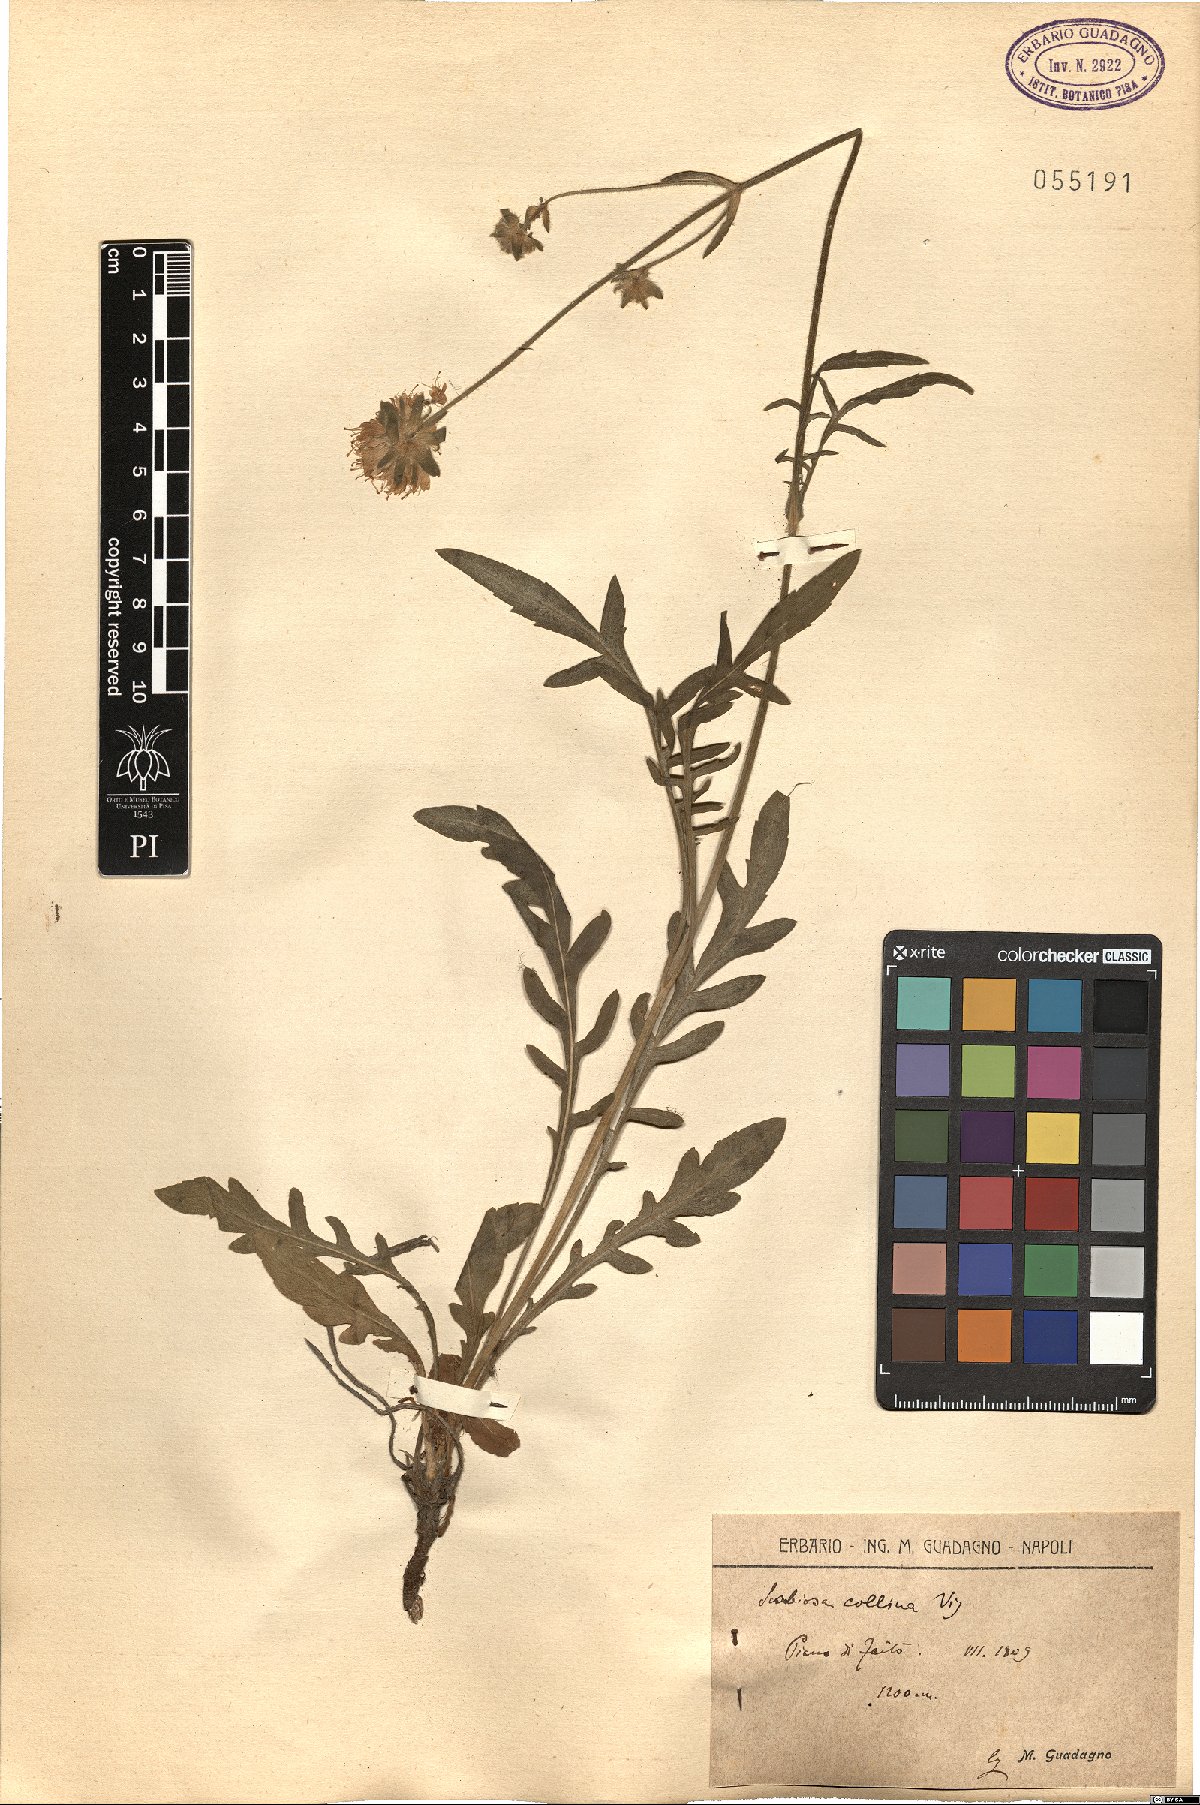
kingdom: Plantae
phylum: Tracheophyta
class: Magnoliopsida
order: Dipsacales
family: Caprifoliaceae
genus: Knautia
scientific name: Knautia collina
